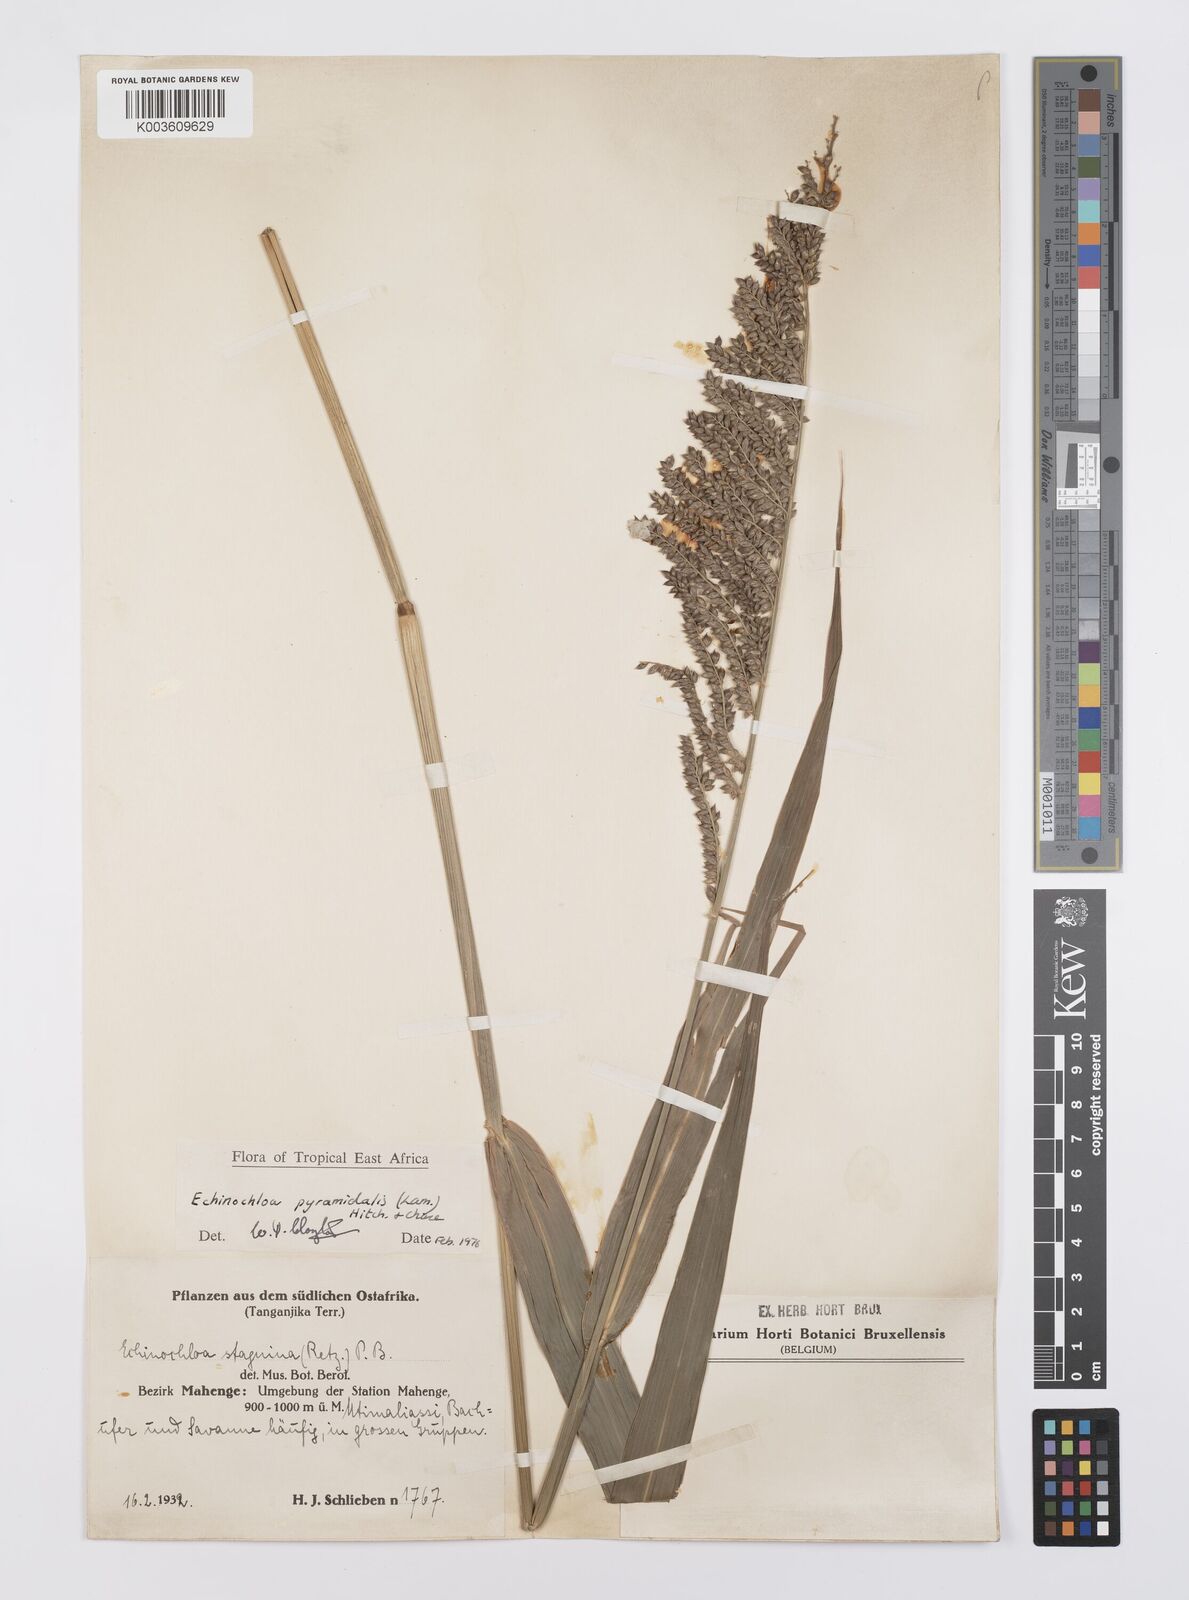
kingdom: Plantae
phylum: Tracheophyta
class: Liliopsida
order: Poales
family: Poaceae
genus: Echinochloa
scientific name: Echinochloa pyramidalis
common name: Antelope grass
